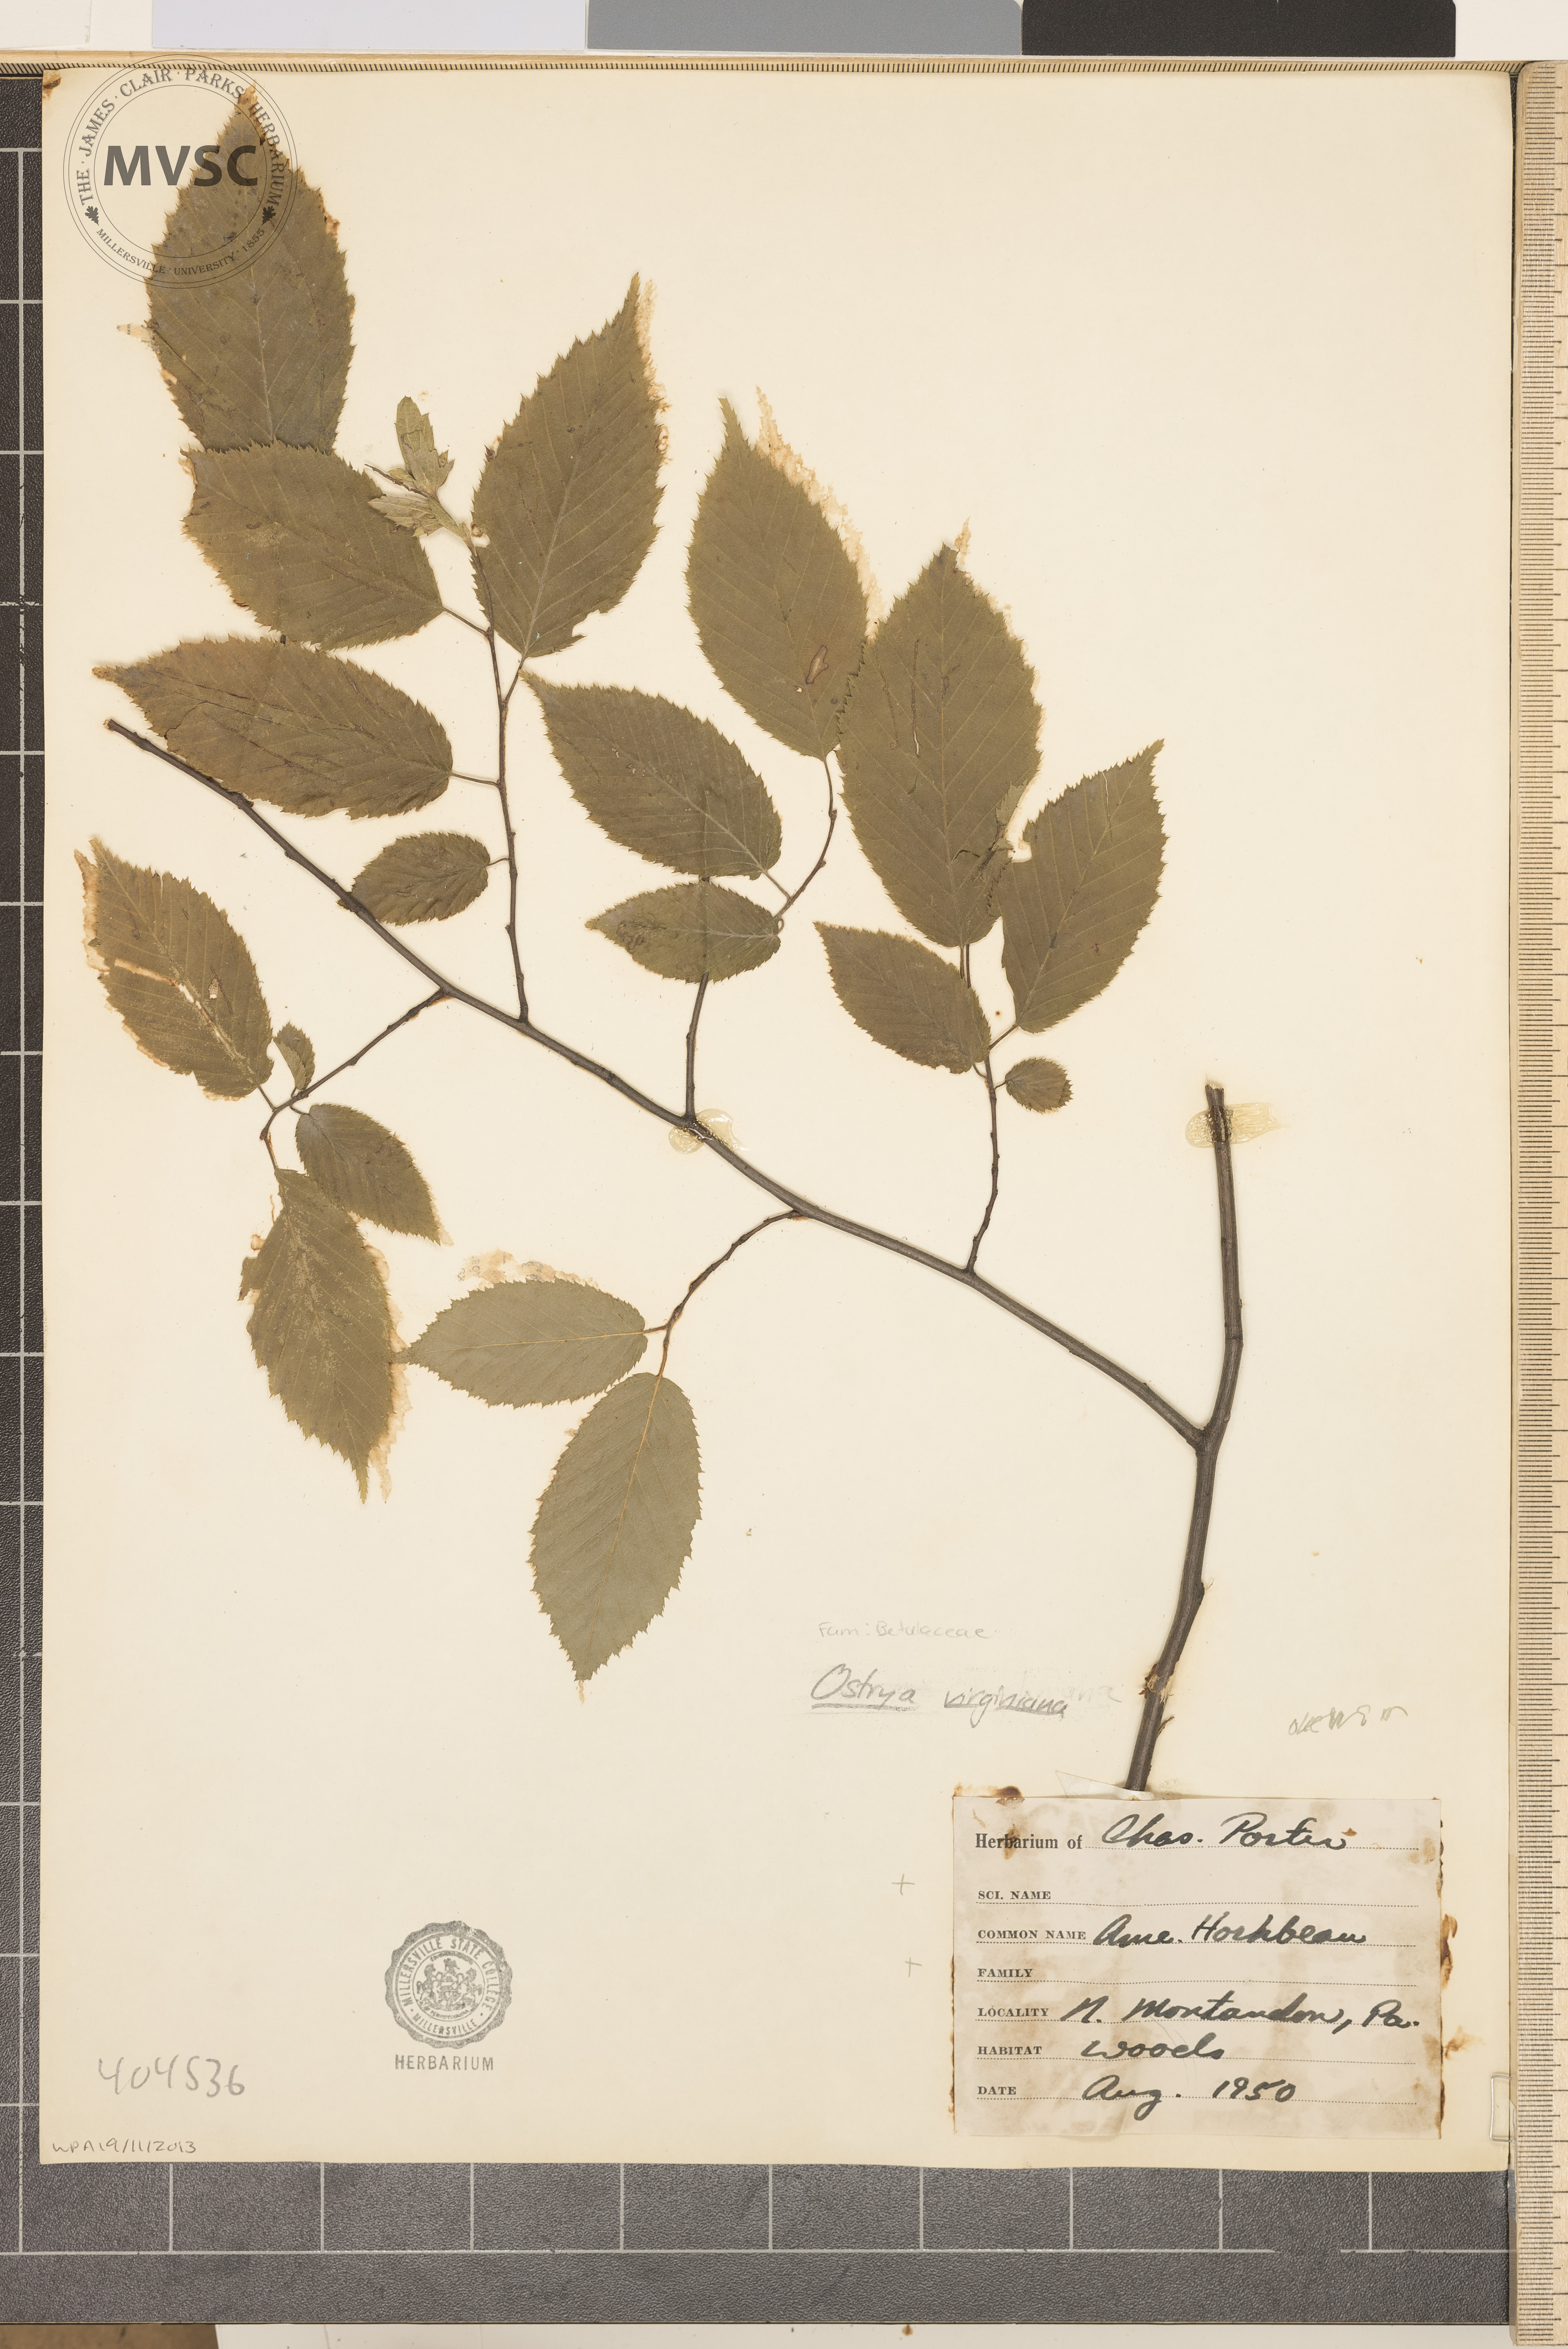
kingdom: Plantae
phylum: Tracheophyta
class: Magnoliopsida
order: Fagales
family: Betulaceae
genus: Ostrya
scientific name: Ostrya virginiana
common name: Ironwood
